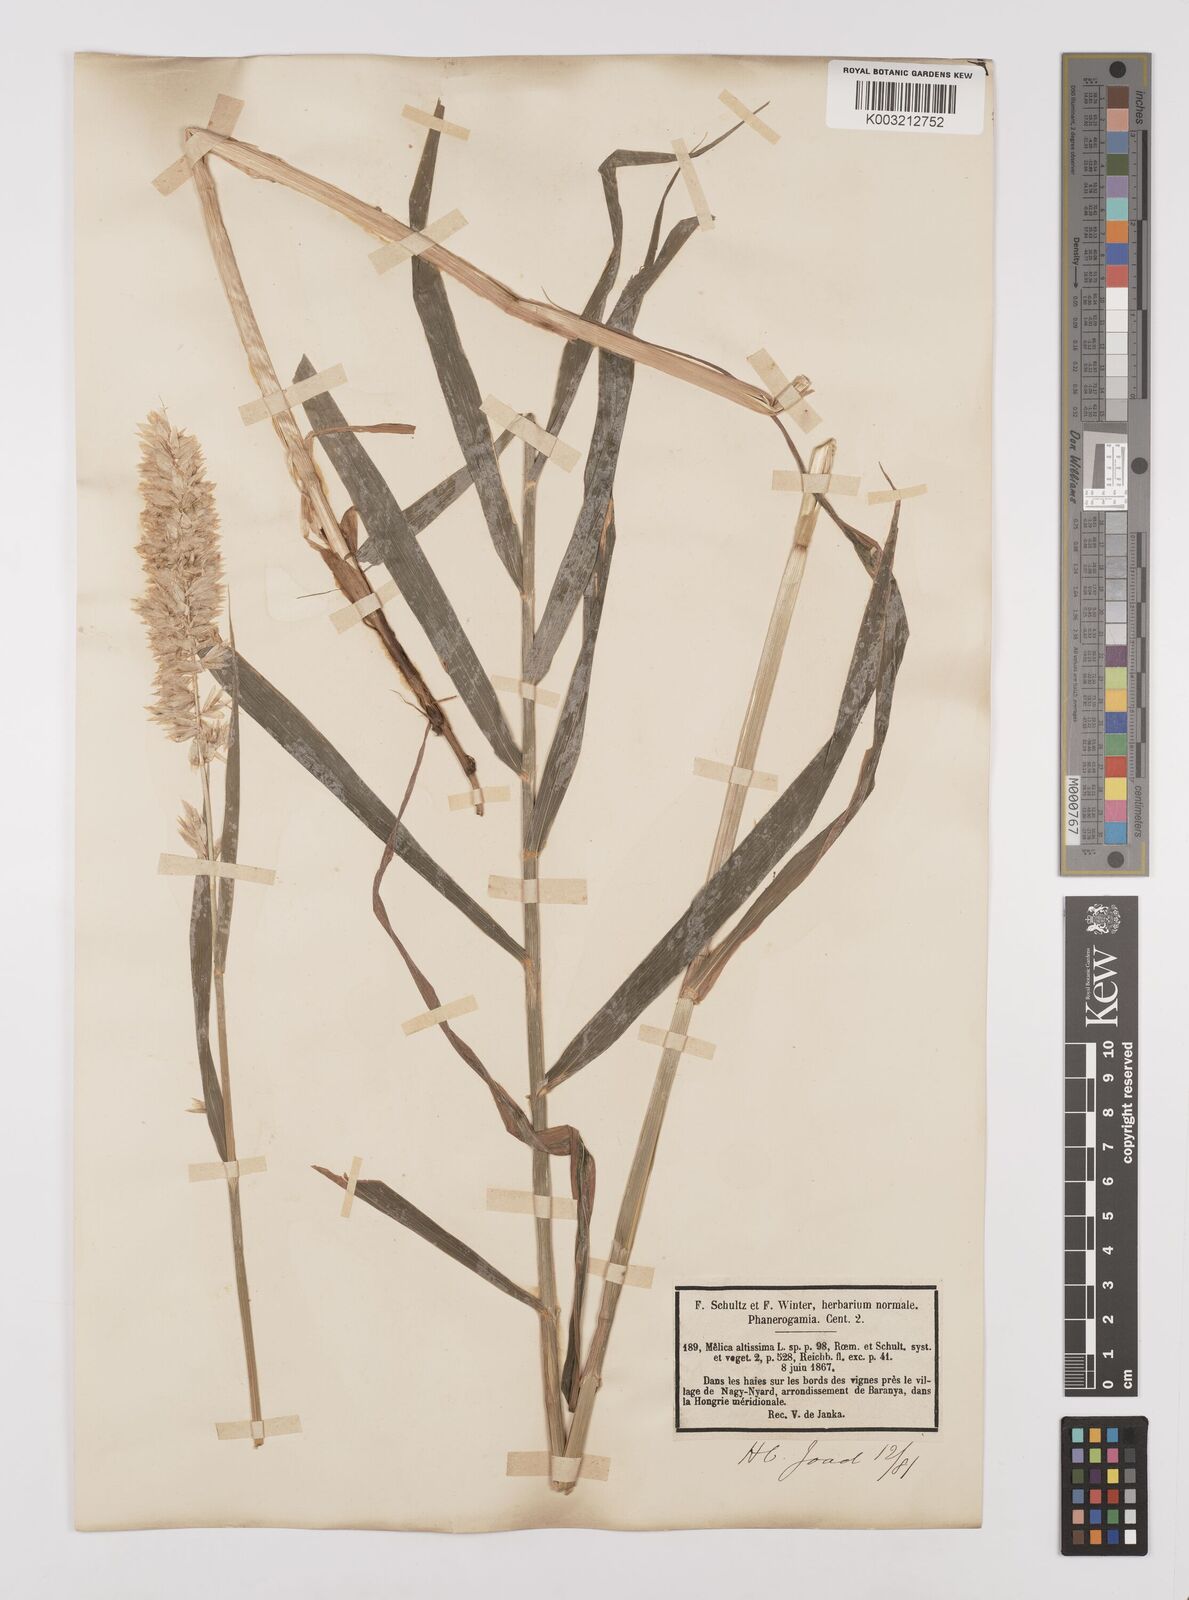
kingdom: Plantae
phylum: Tracheophyta
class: Liliopsida
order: Poales
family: Poaceae
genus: Melica
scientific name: Melica altissima
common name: Siberian melicgrass
